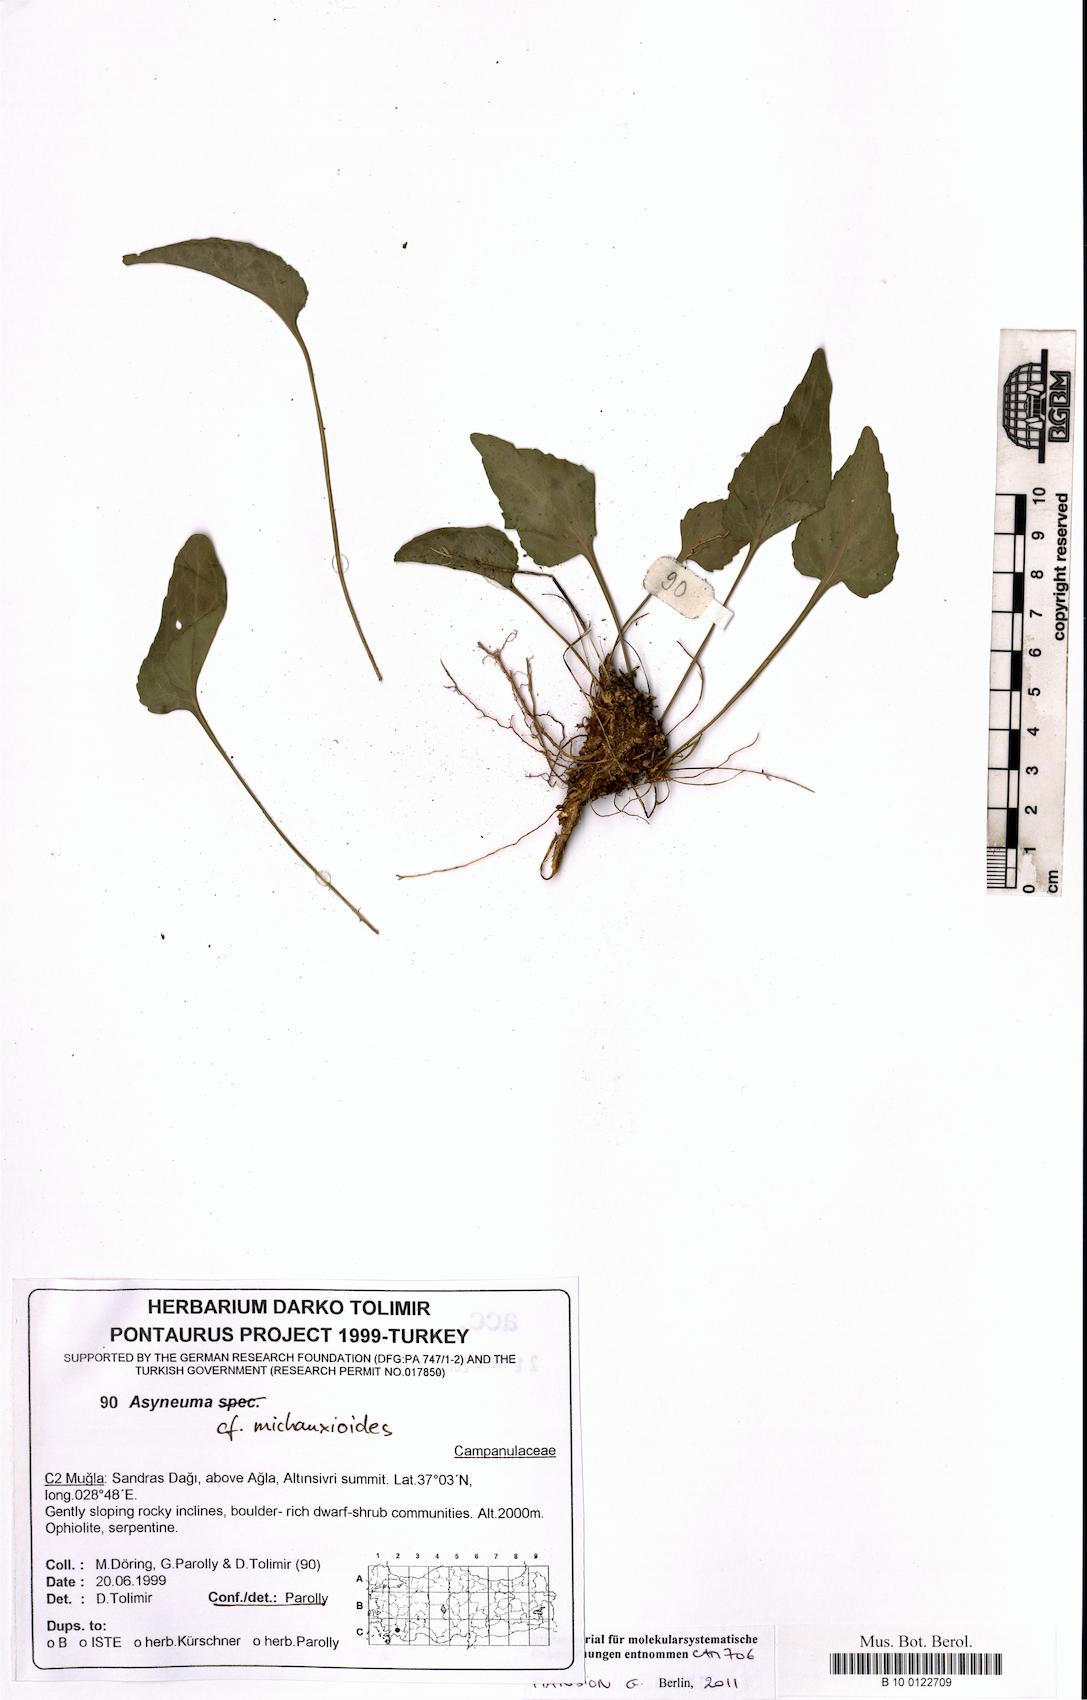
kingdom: Plantae
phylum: Tracheophyta
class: Magnoliopsida
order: Asterales
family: Campanulaceae
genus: Asyneuma
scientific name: Asyneuma michauxioides
